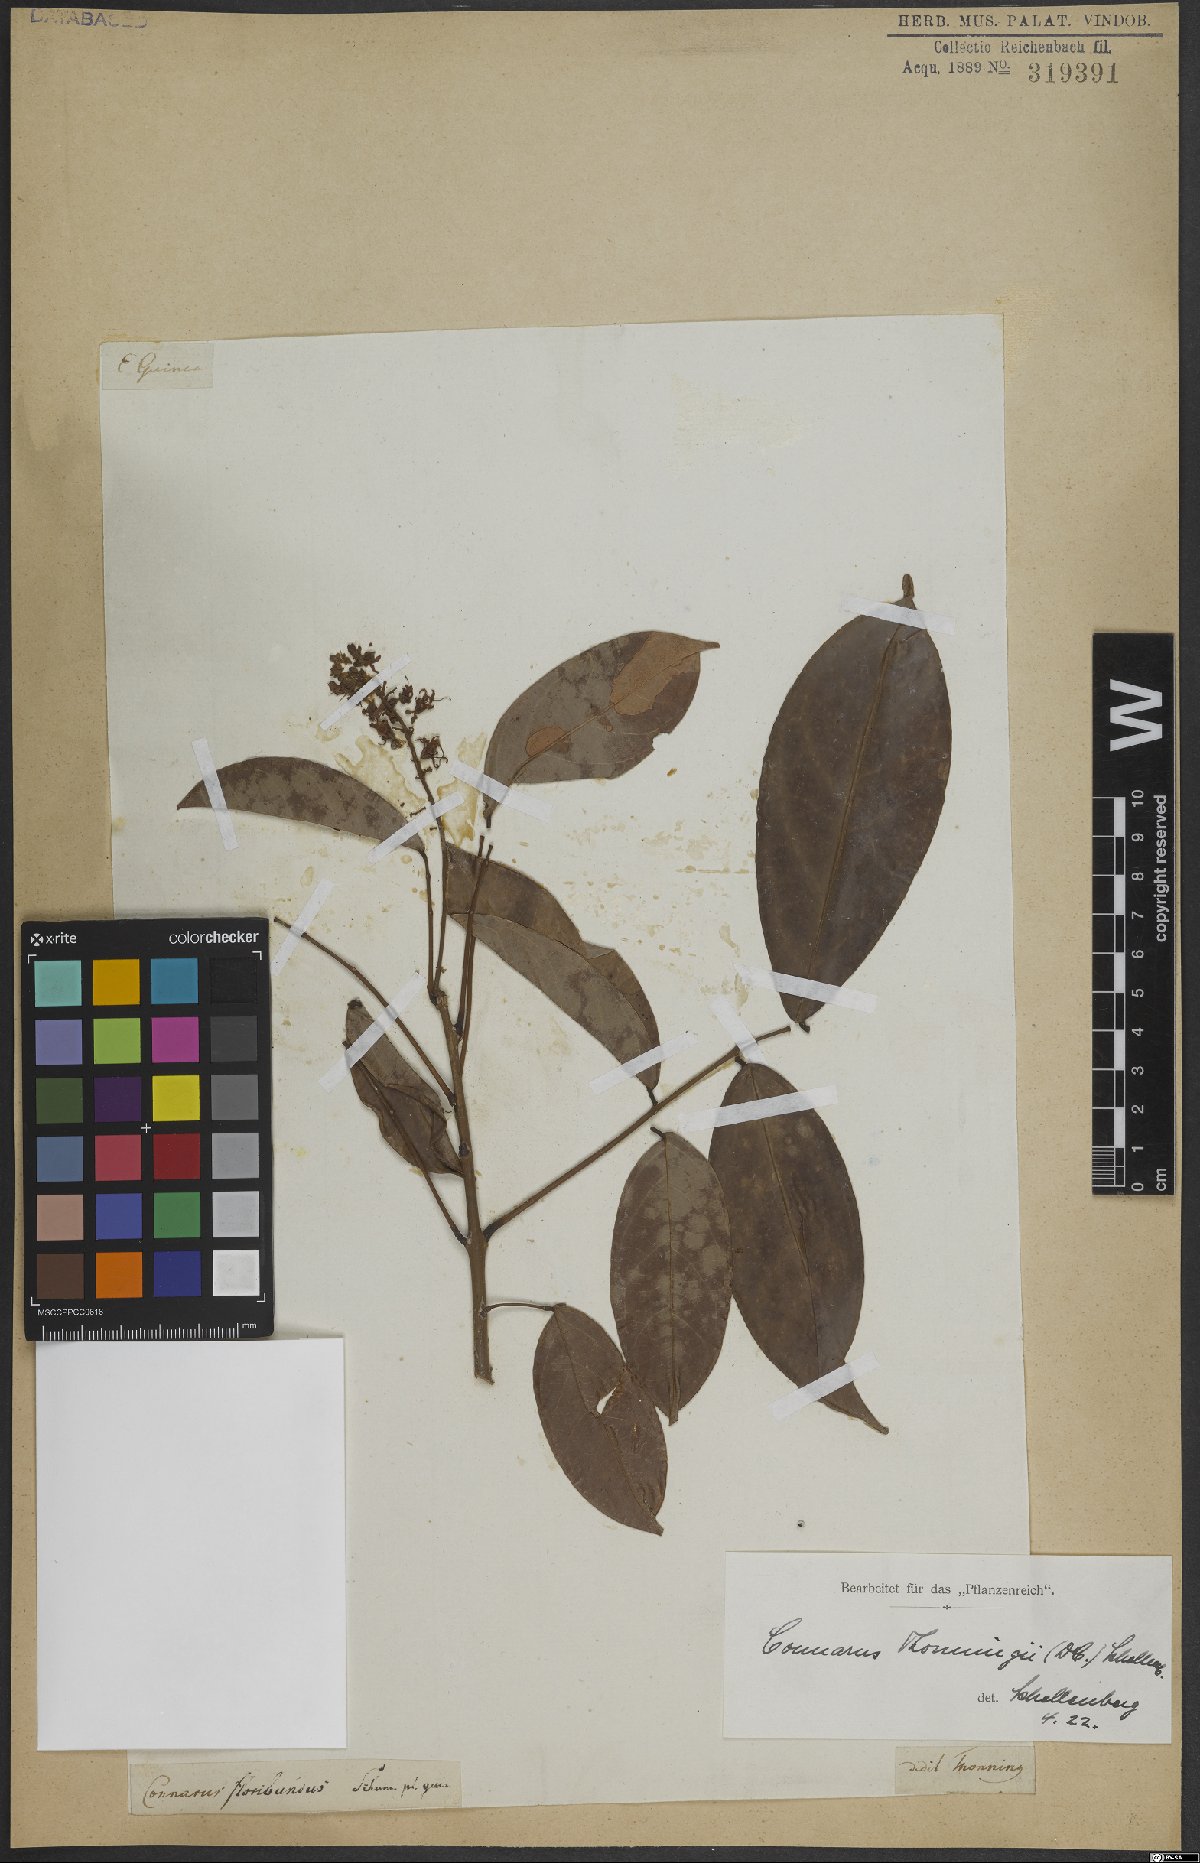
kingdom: Plantae
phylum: Tracheophyta
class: Magnoliopsida
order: Oxalidales
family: Connaraceae
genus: Connarus
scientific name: Connarus thonningii
